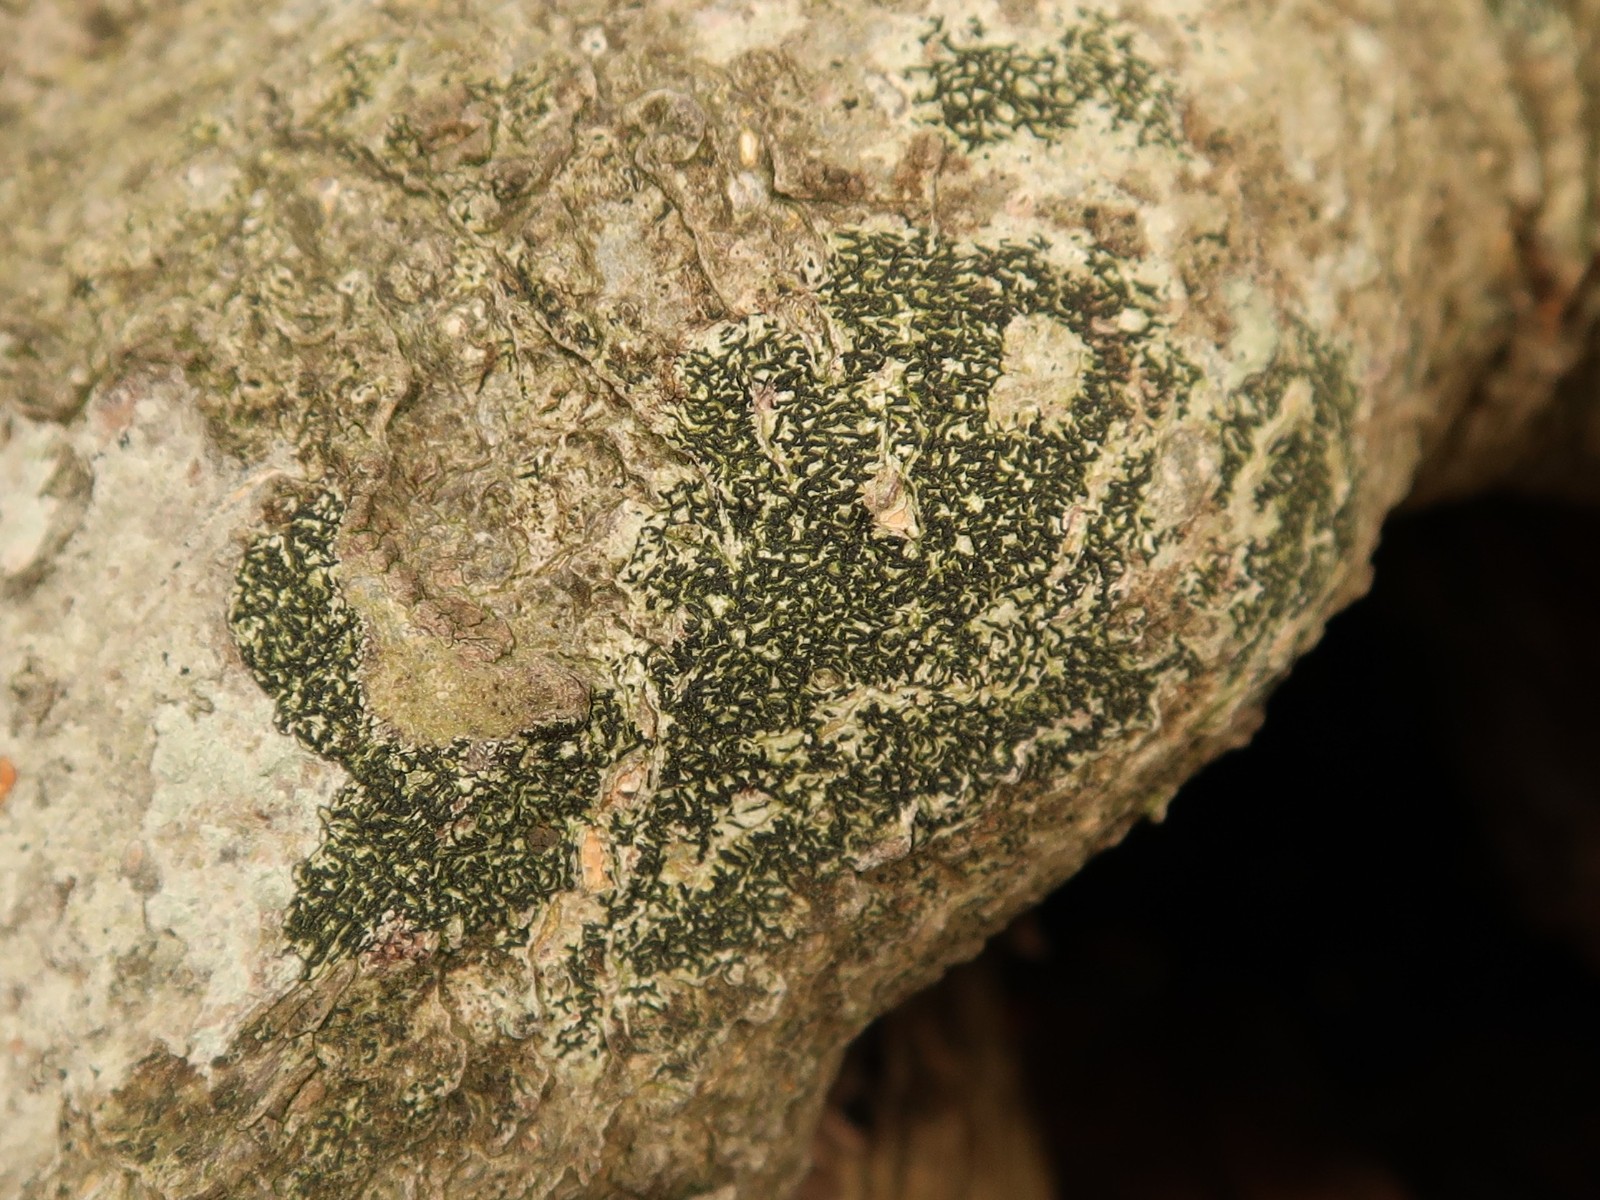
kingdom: Fungi
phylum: Ascomycota
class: Arthoniomycetes
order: Arthoniales
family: Arthoniaceae
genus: Arthonia
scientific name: Arthonia atra
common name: sort bogstavlav
